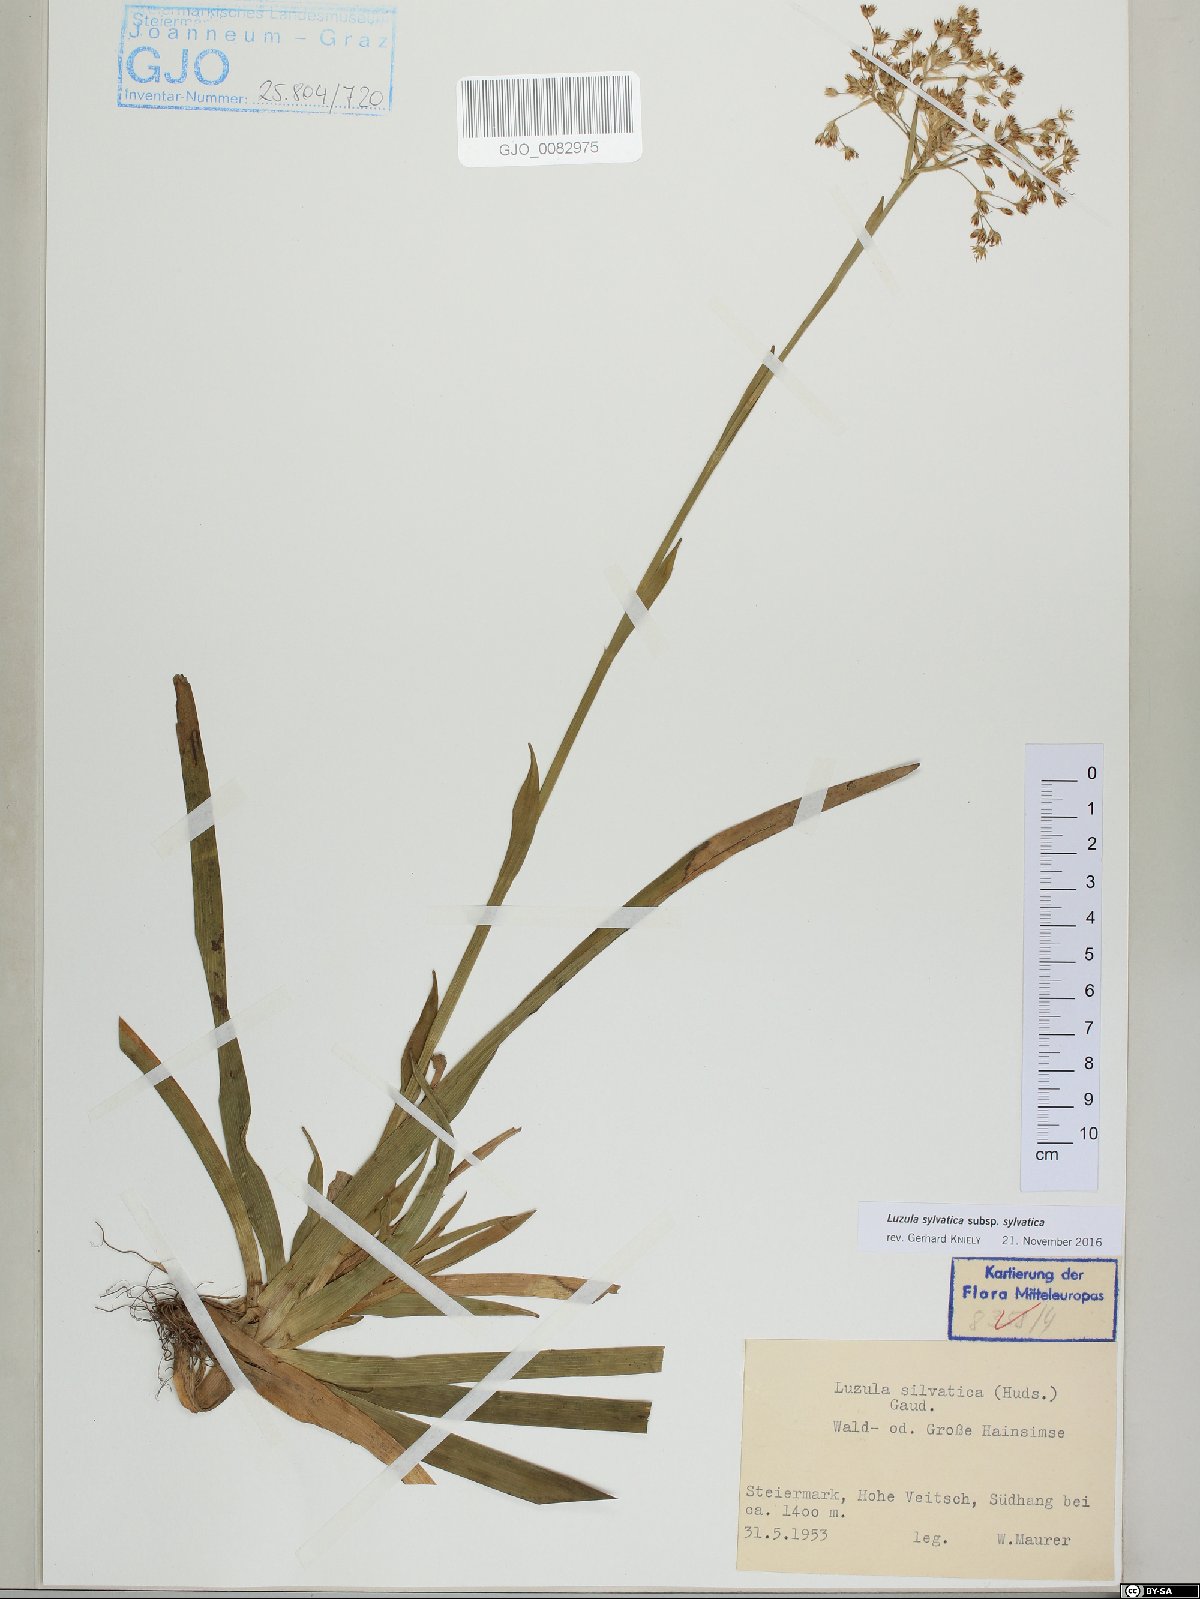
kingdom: Plantae
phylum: Tracheophyta
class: Liliopsida
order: Poales
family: Juncaceae
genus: Luzula
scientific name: Luzula sylvatica
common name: Great wood-rush
